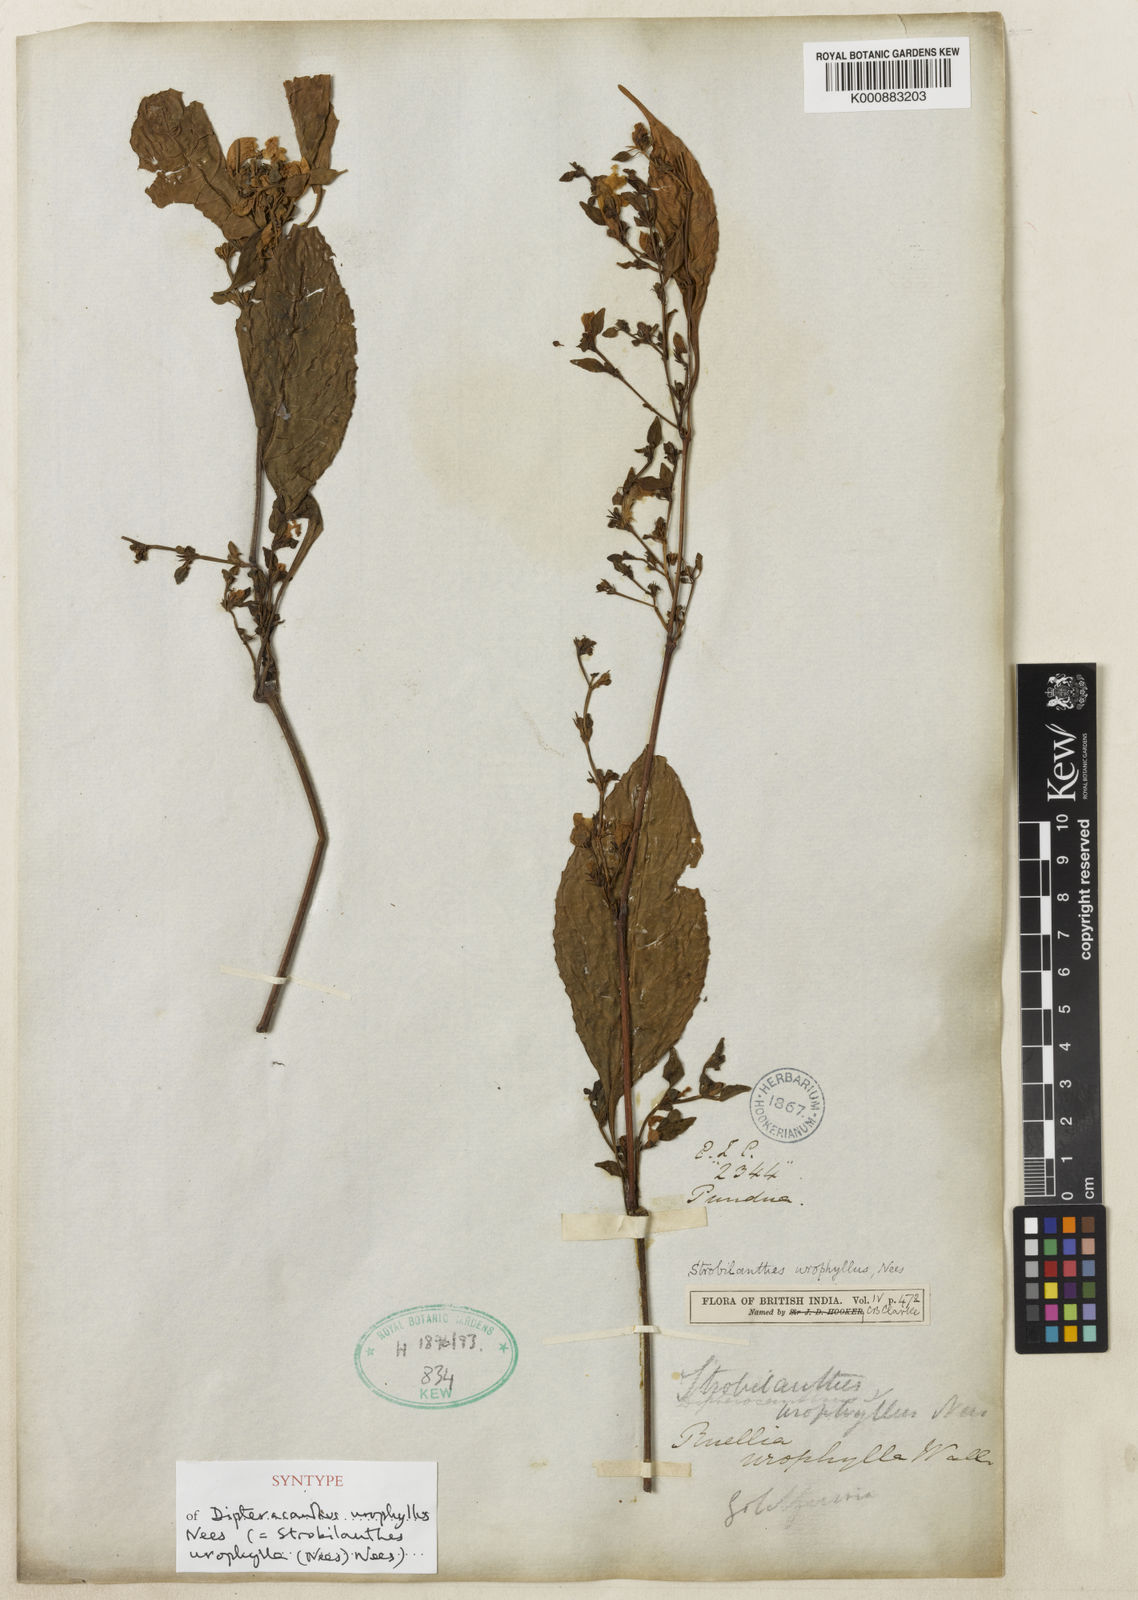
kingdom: Plantae
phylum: Tracheophyta
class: Magnoliopsida
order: Lamiales
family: Acanthaceae
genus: Strobilanthes
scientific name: Strobilanthes urophylla
